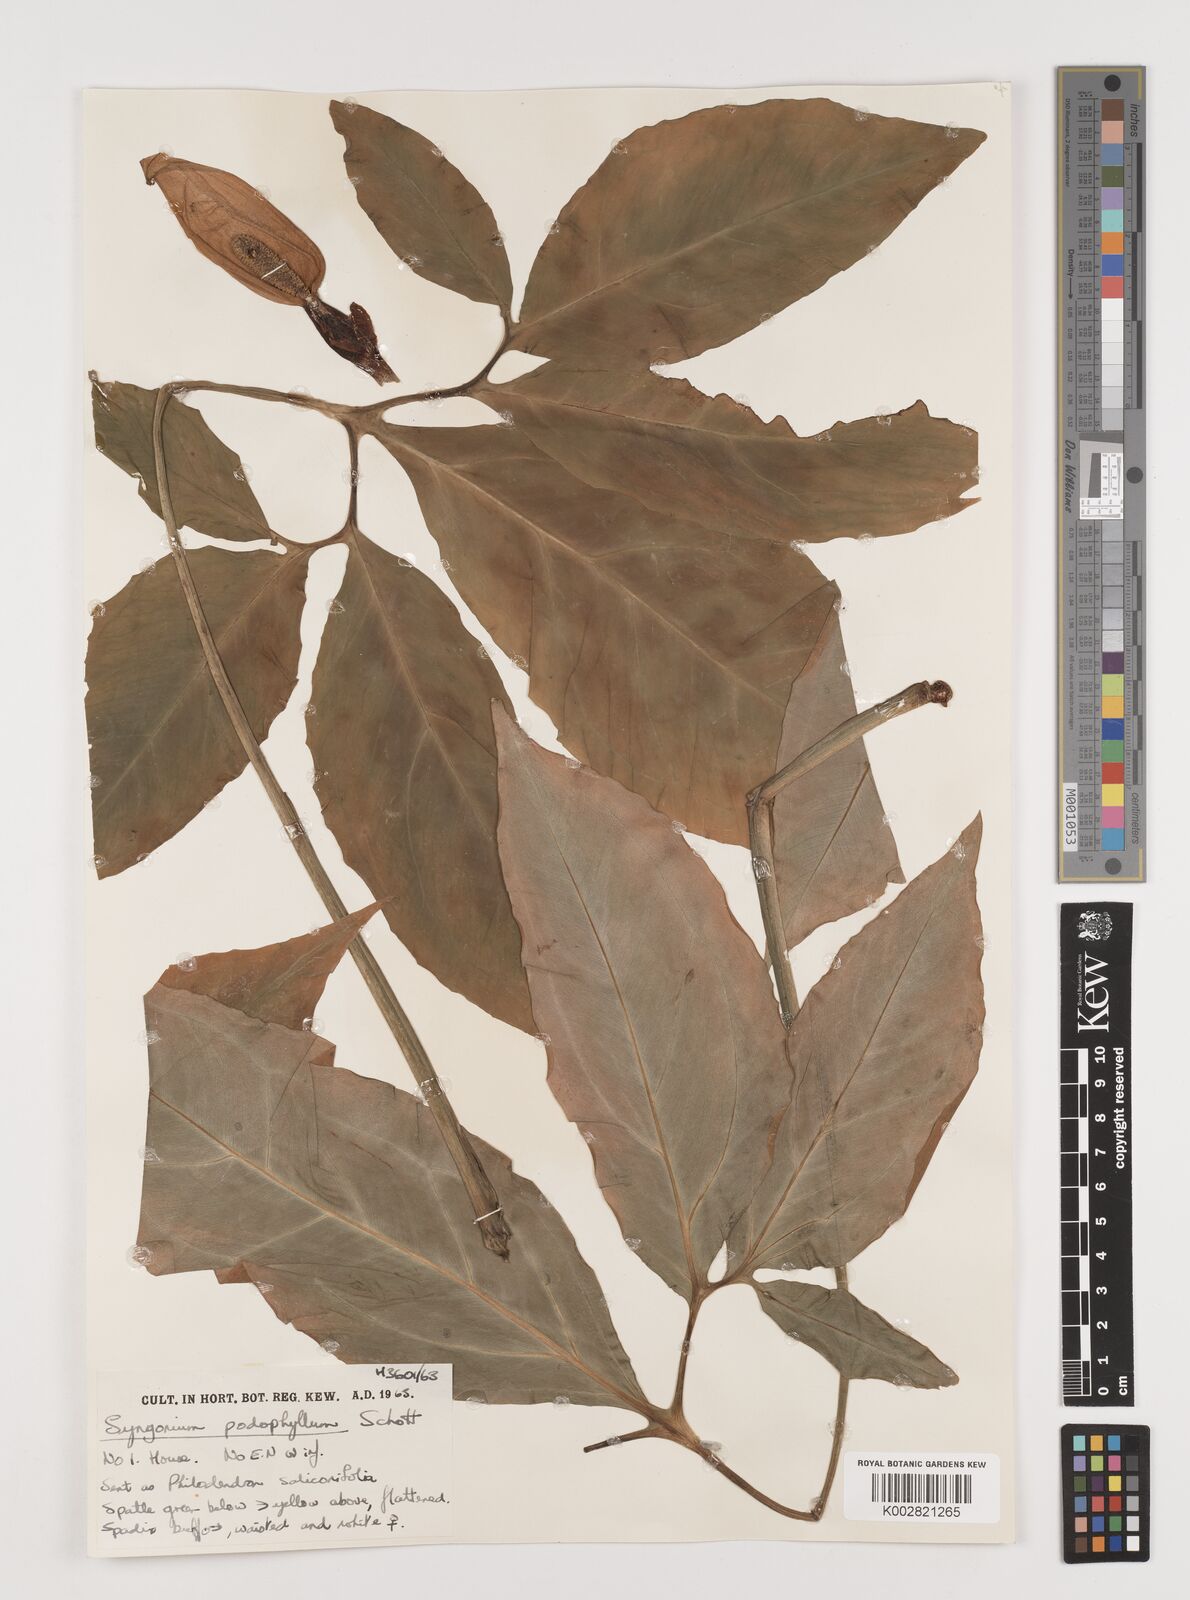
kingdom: Plantae
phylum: Tracheophyta
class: Liliopsida
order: Alismatales
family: Araceae
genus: Syngonium
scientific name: Syngonium podophyllum
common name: American evergreen
